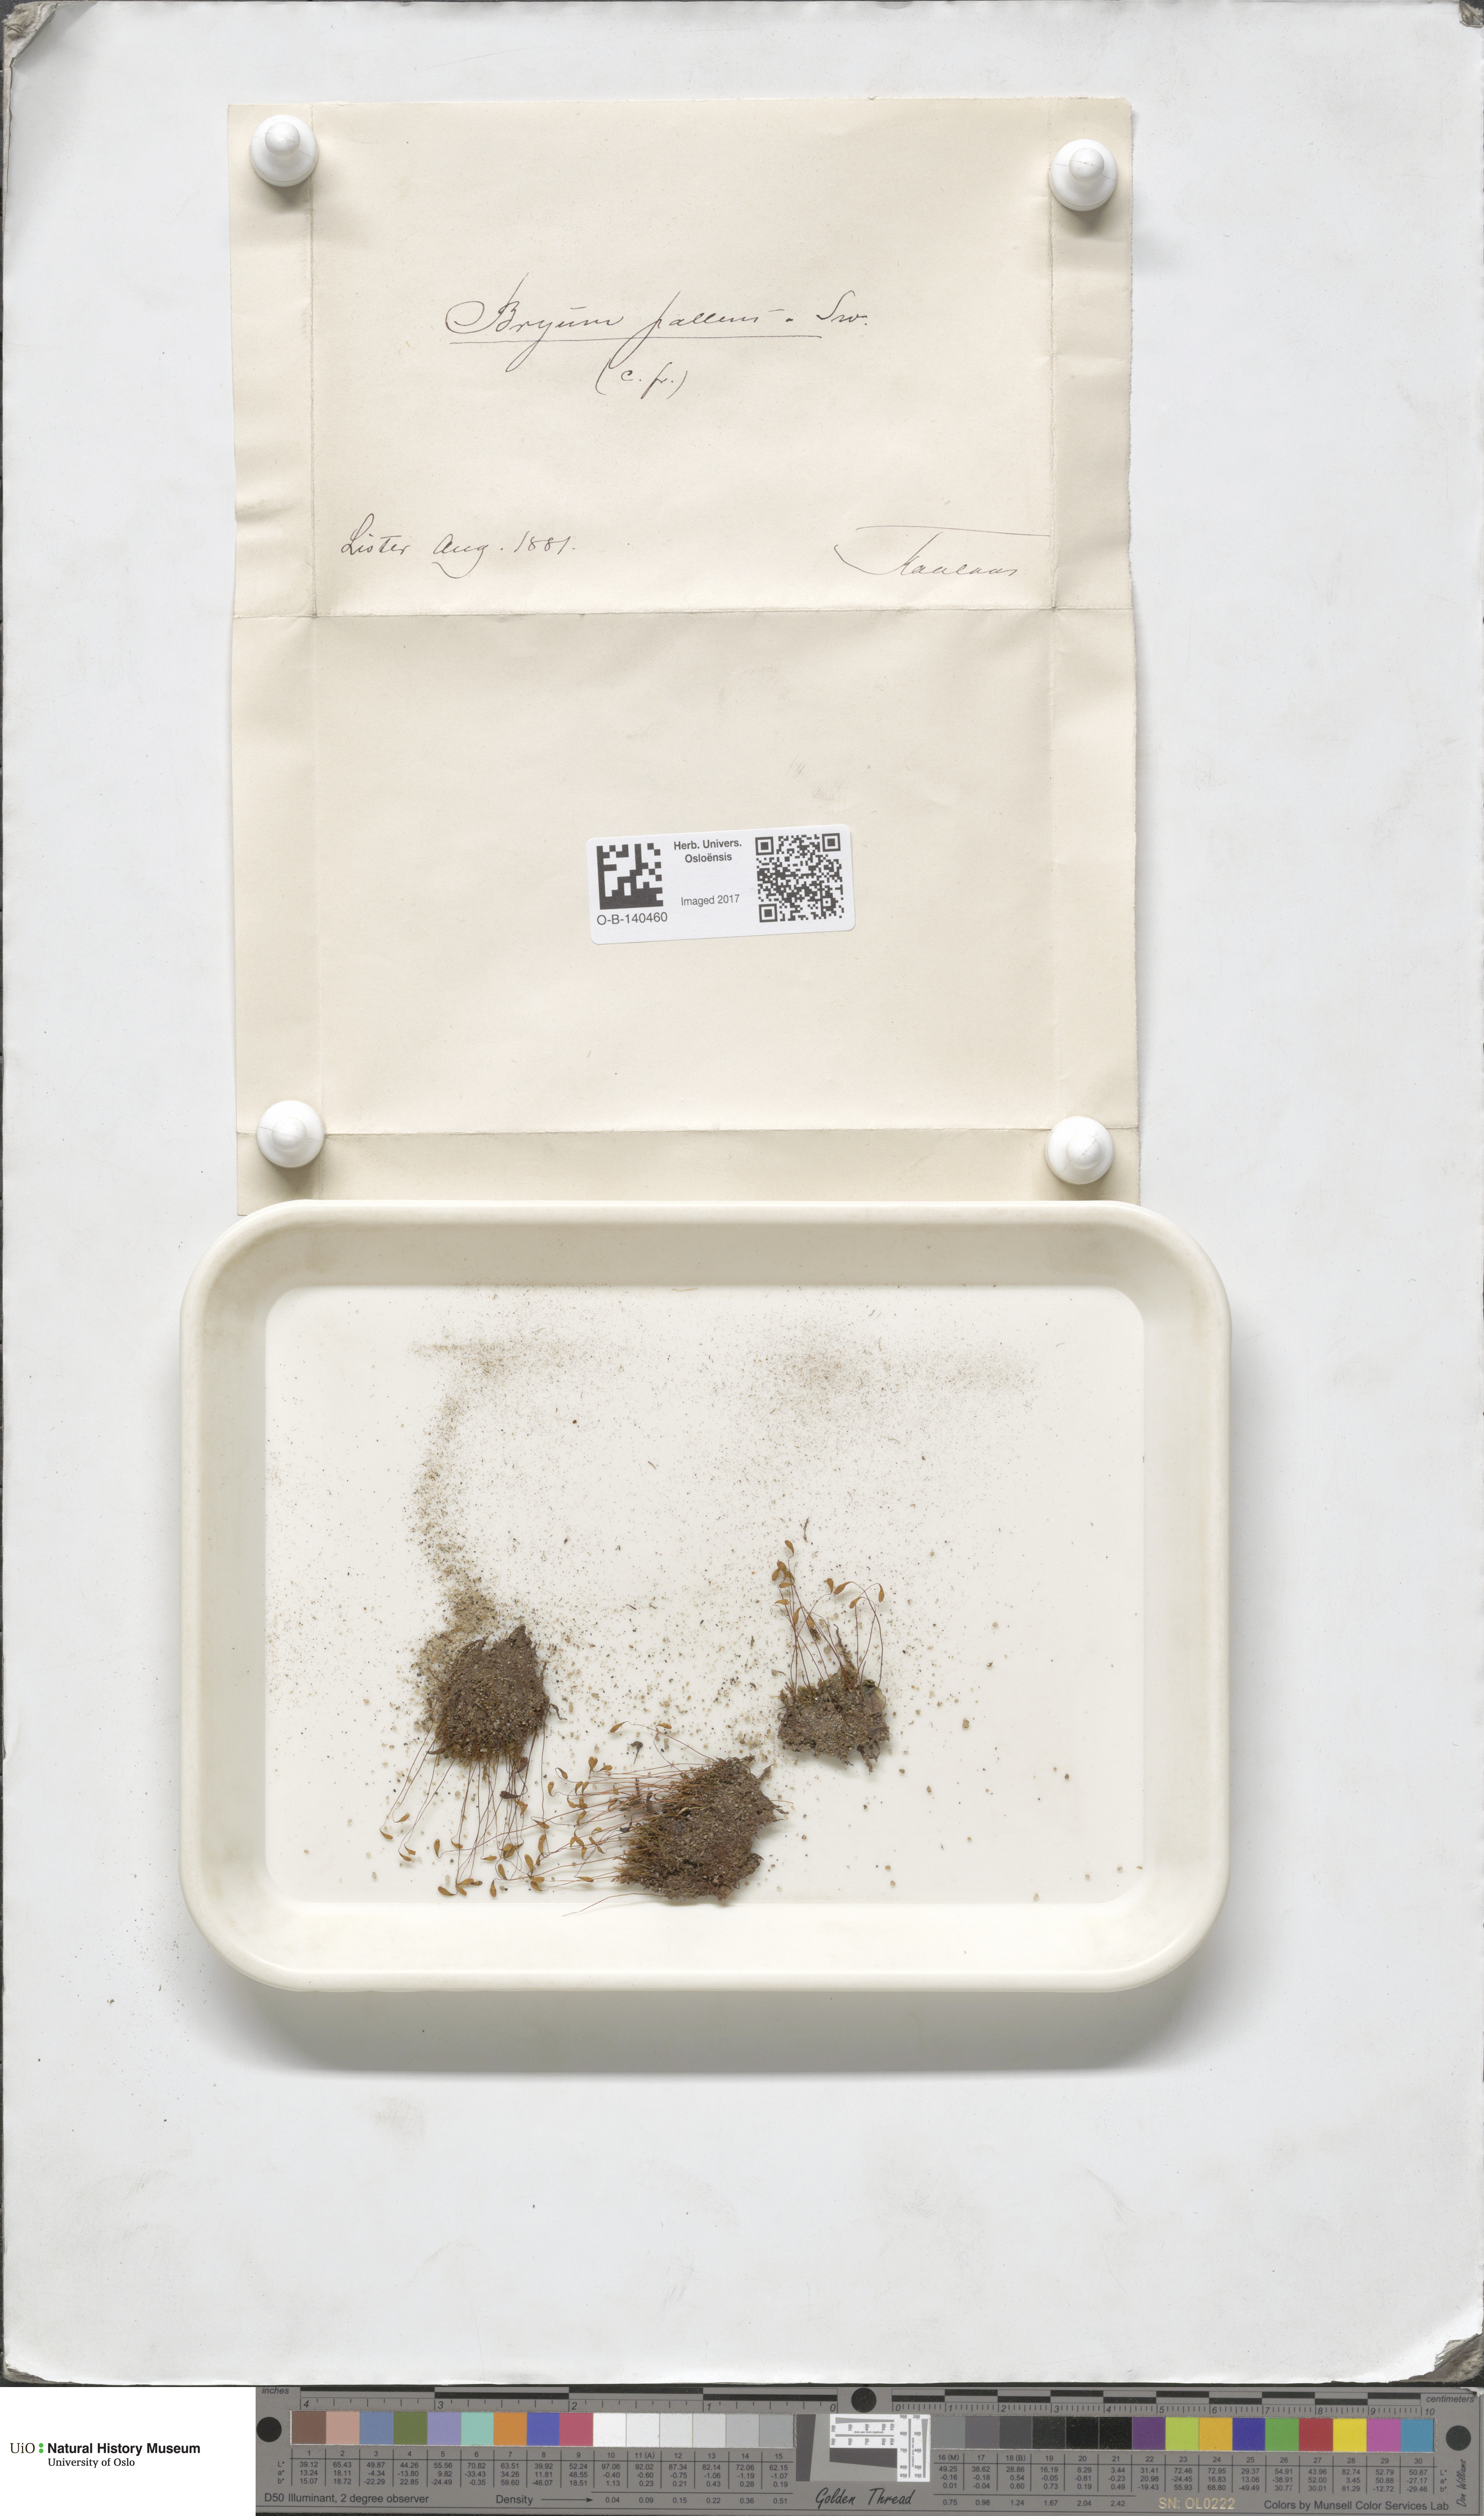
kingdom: Plantae
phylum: Bryophyta
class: Bryopsida
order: Bryales
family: Bryaceae
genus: Ptychostomum
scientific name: Ptychostomum pallens
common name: Pale thread-moss
